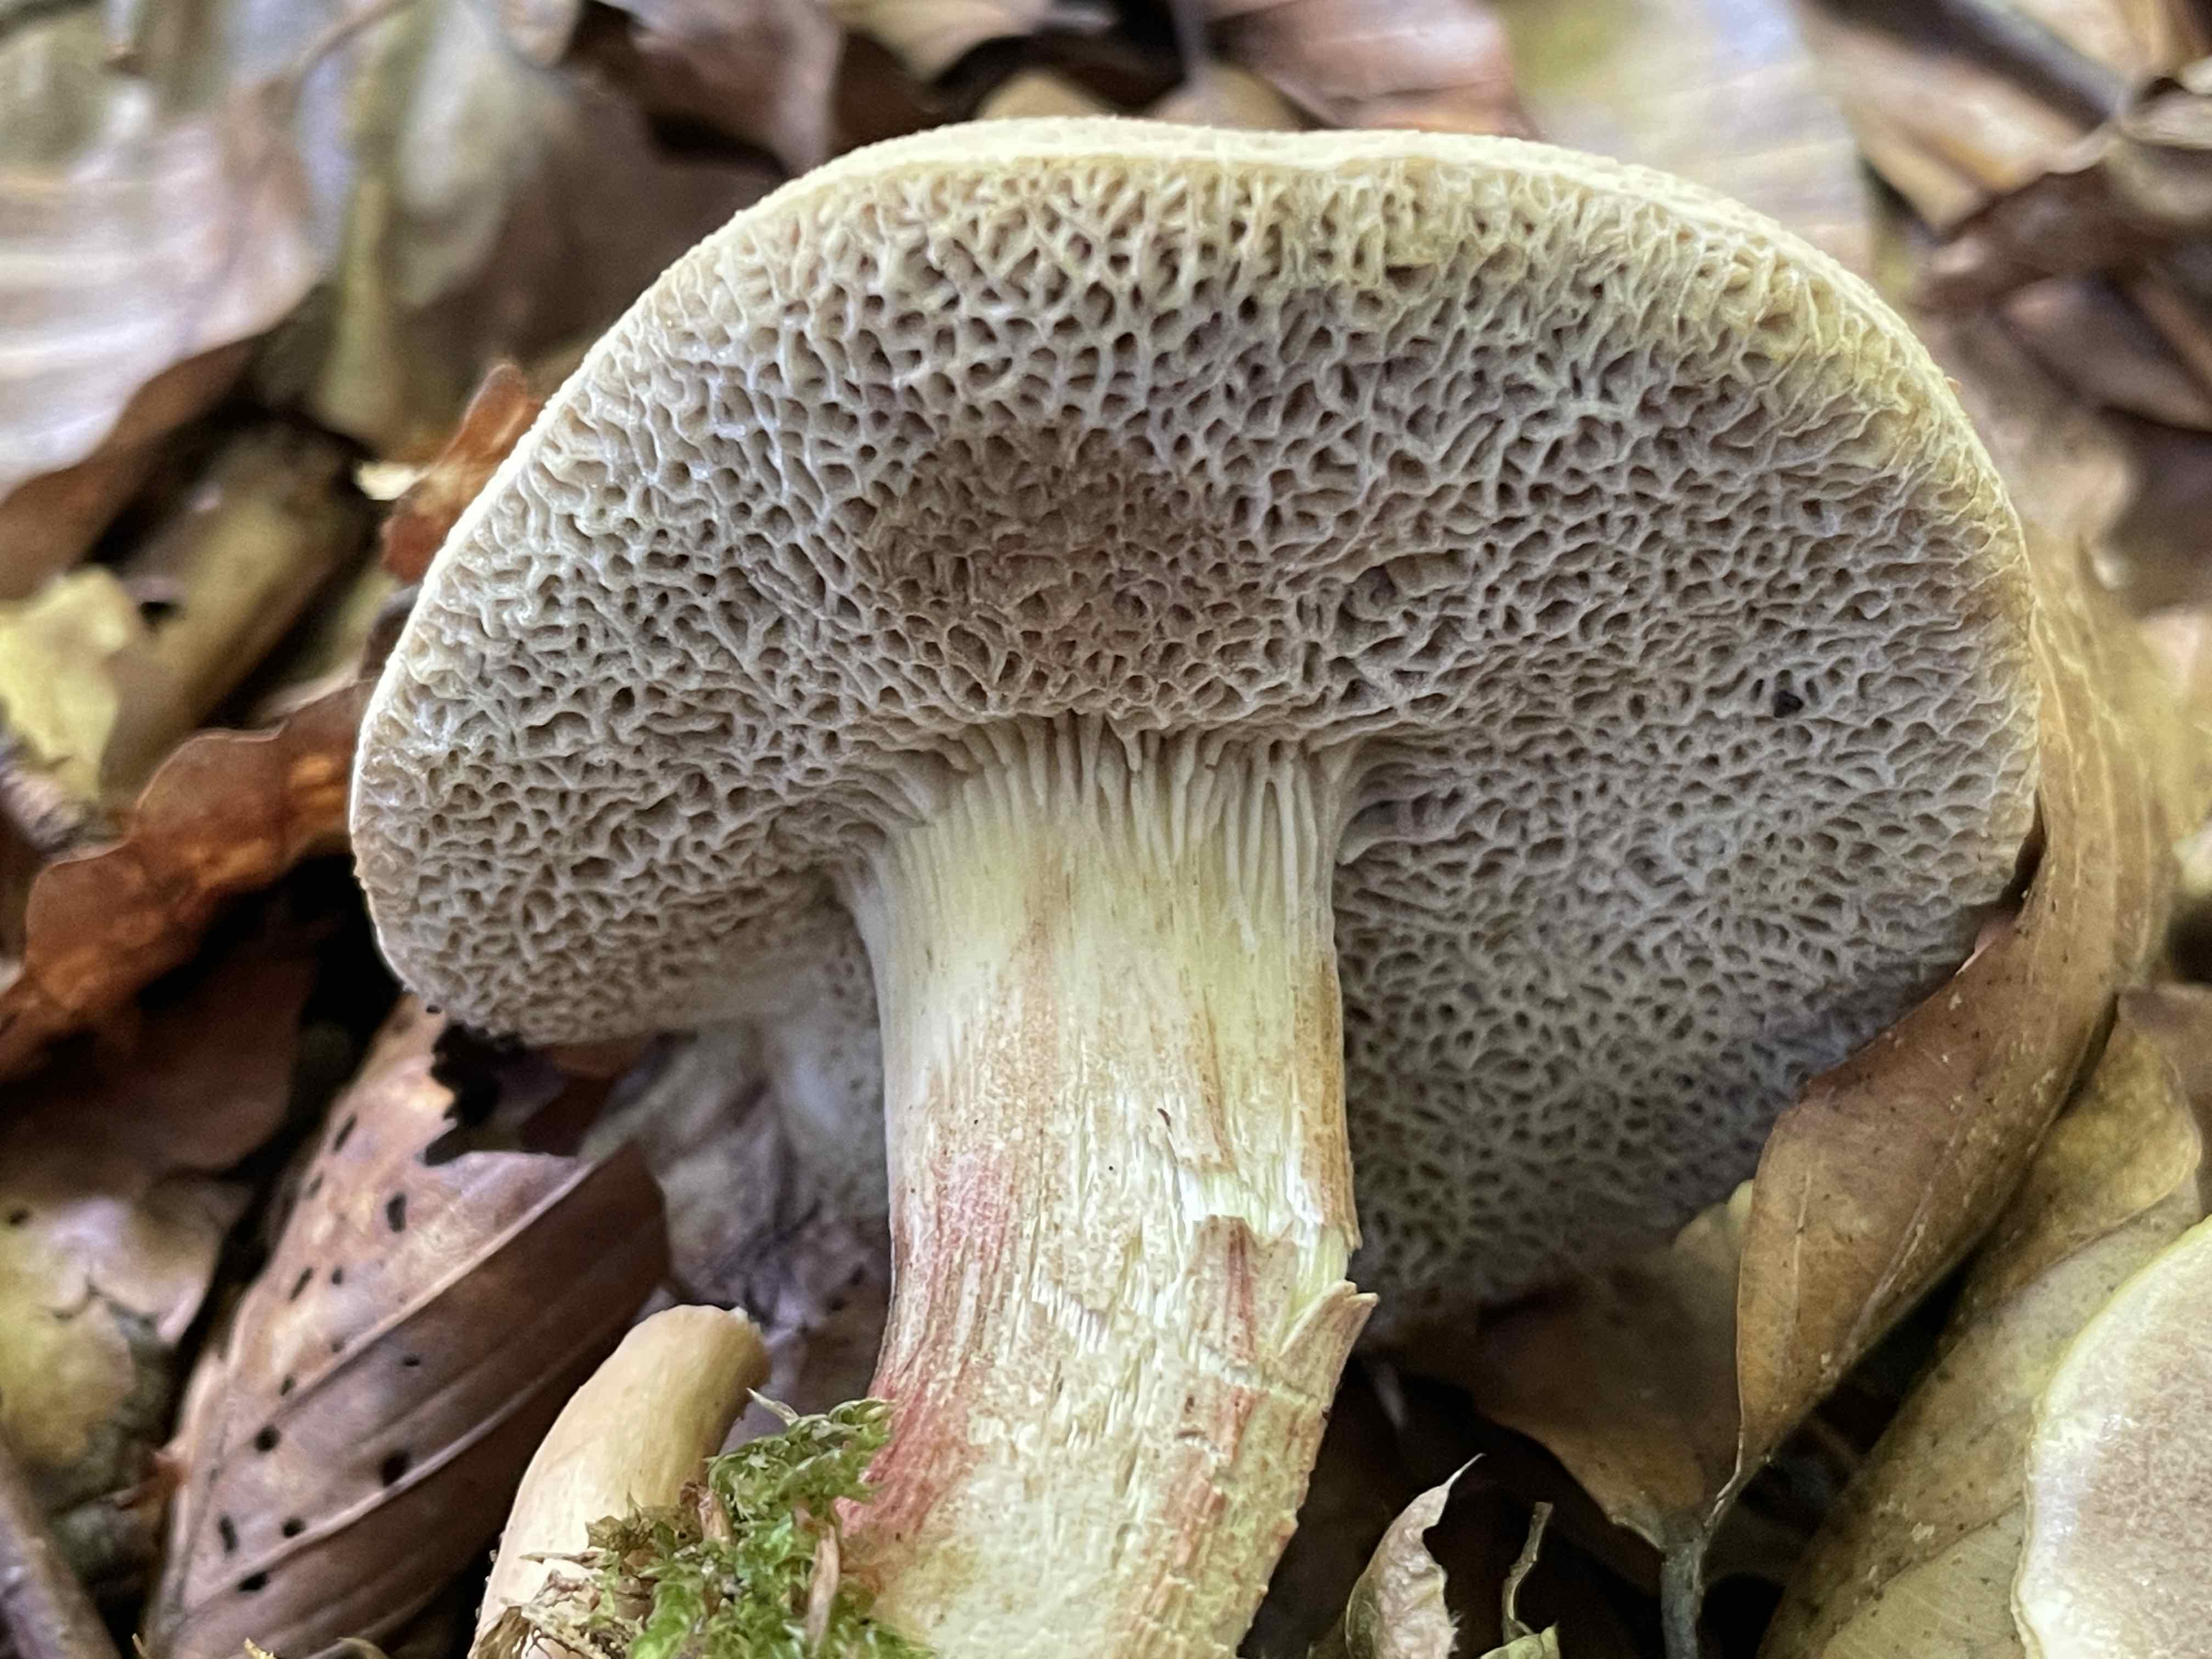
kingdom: Fungi
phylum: Basidiomycota
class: Agaricomycetes
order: Boletales
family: Boletaceae
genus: Xerocomellus
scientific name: Xerocomellus chrysenteron
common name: rødsprukken rørhat
